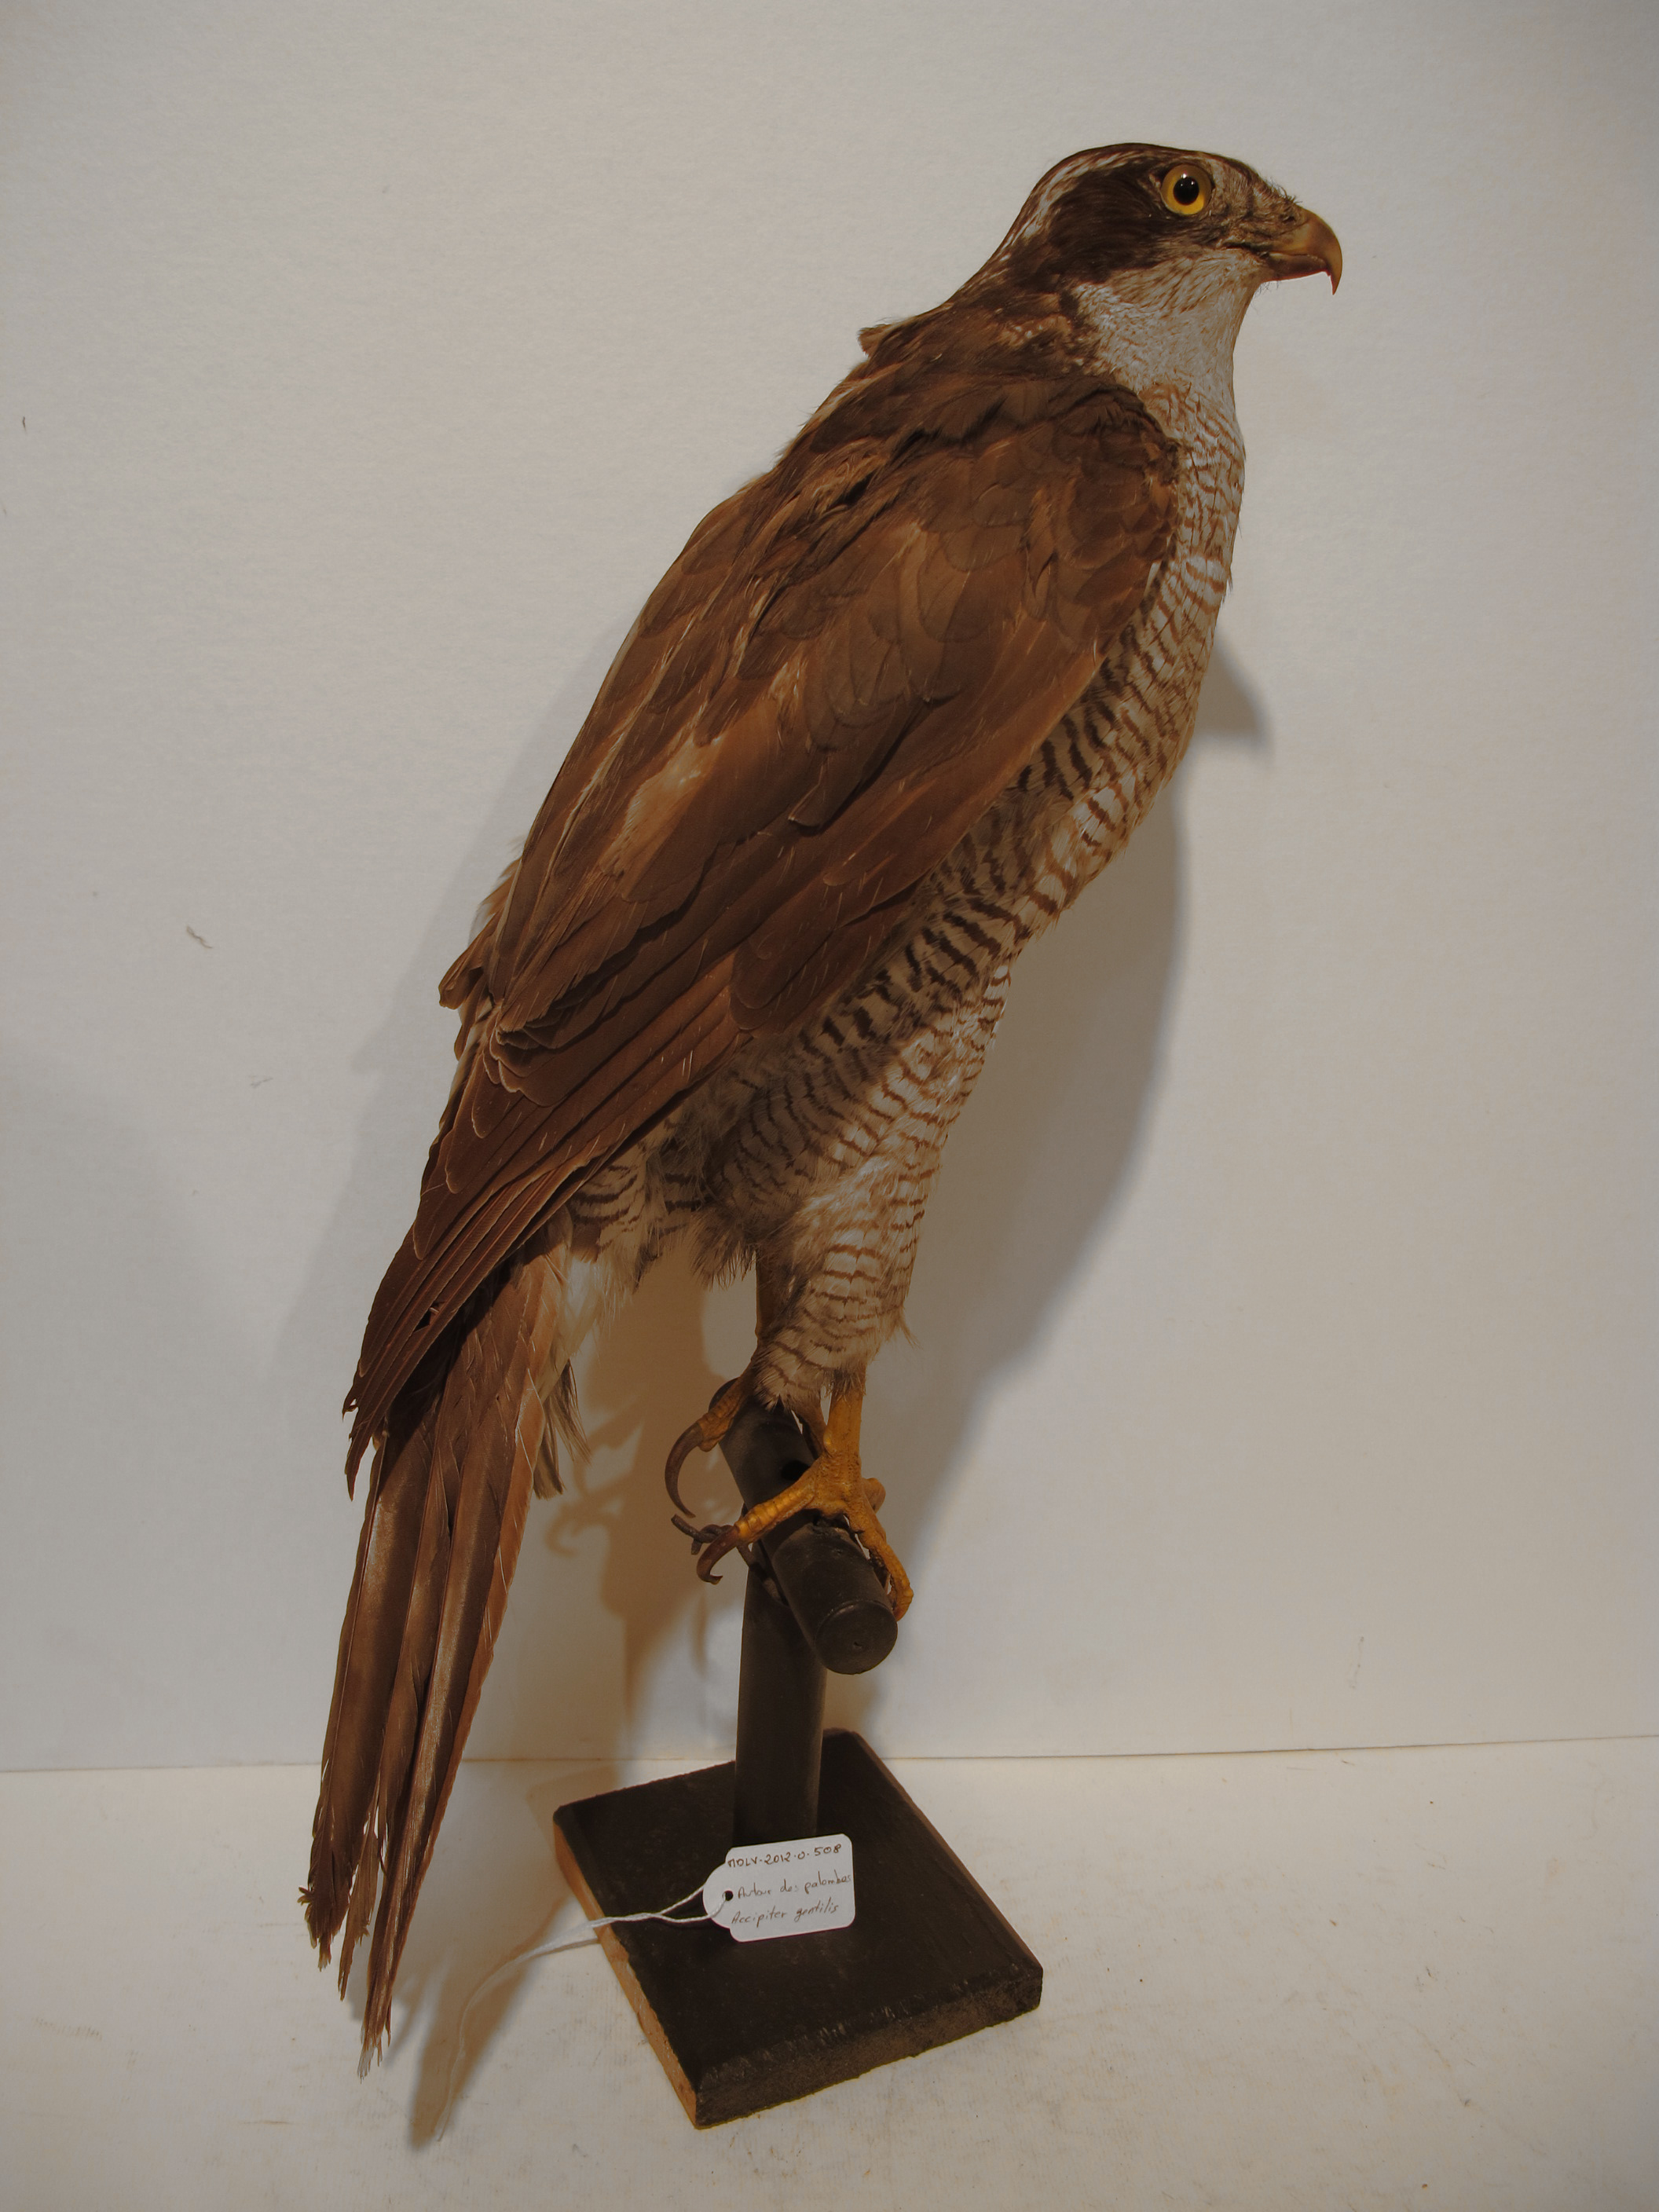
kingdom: Animalia
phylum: Chordata
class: Aves
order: Accipitriformes
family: Accipitridae
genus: Accipiter
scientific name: Accipiter gentilis
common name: Northern Goshawk
